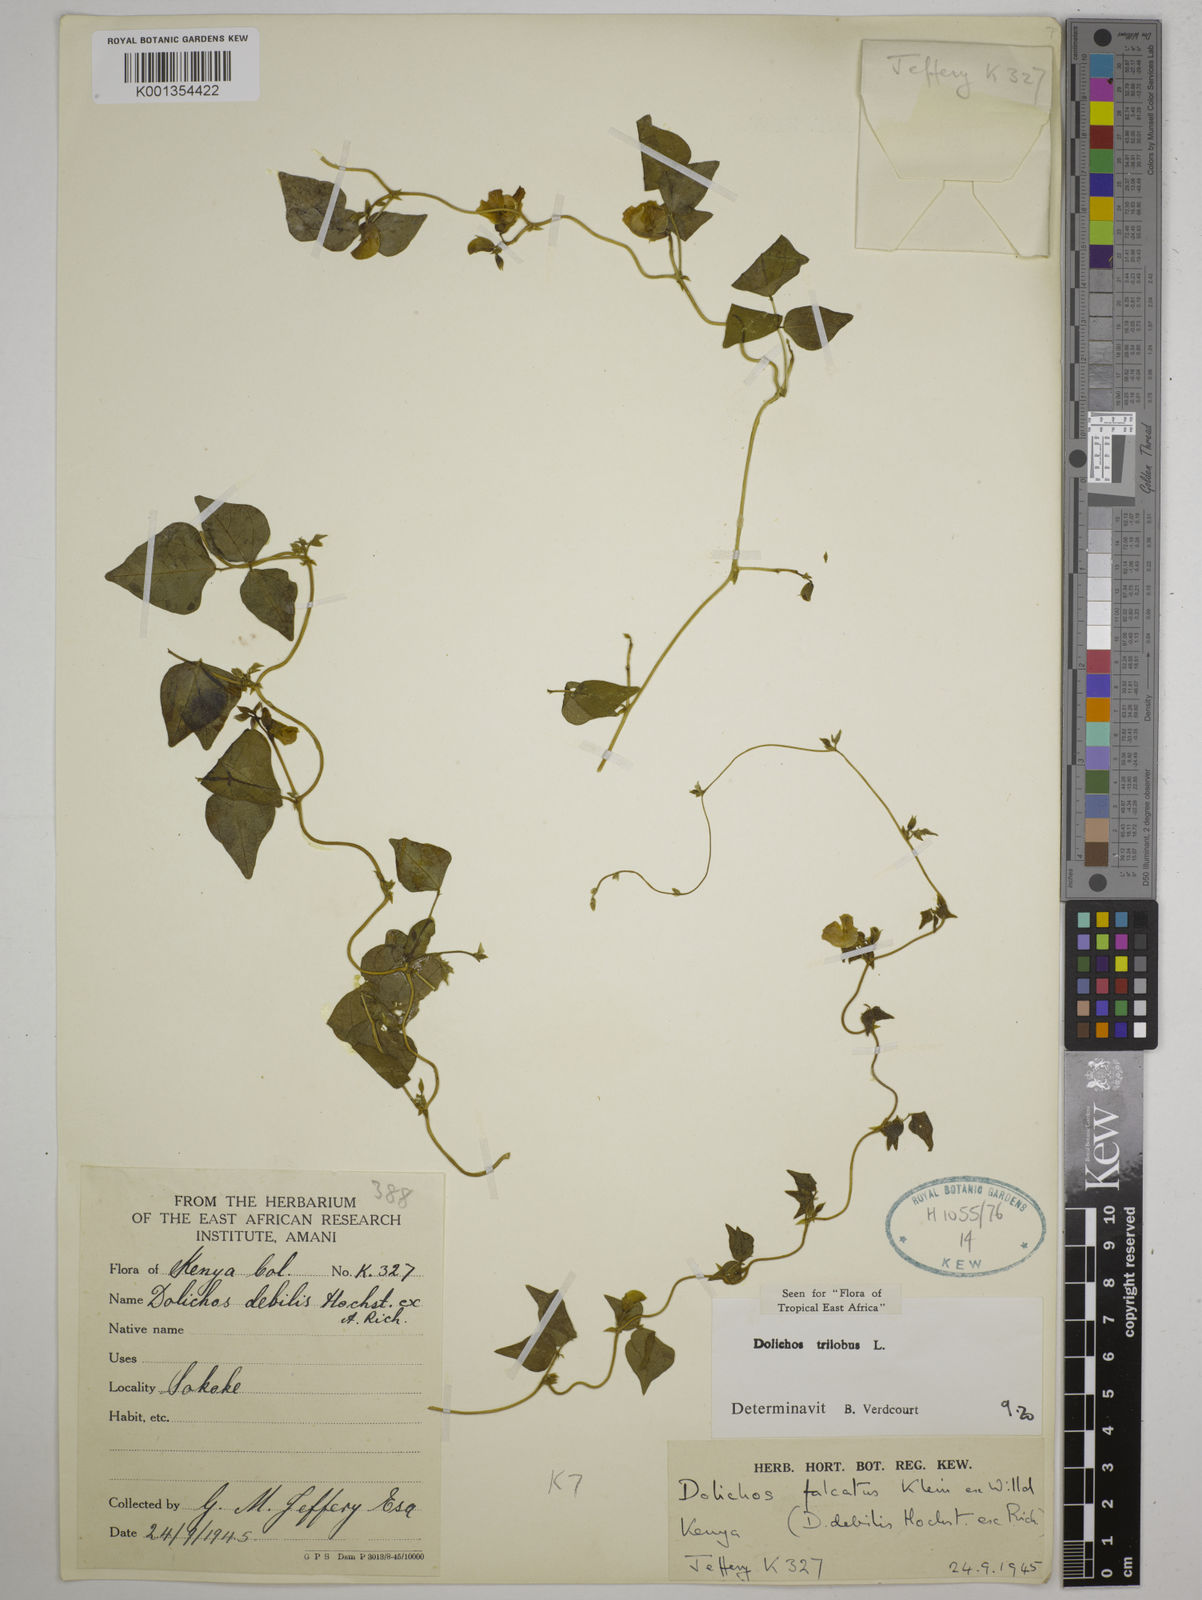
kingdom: Plantae
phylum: Tracheophyta
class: Magnoliopsida
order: Fabales
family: Fabaceae
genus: Dolichos
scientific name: Dolichos
